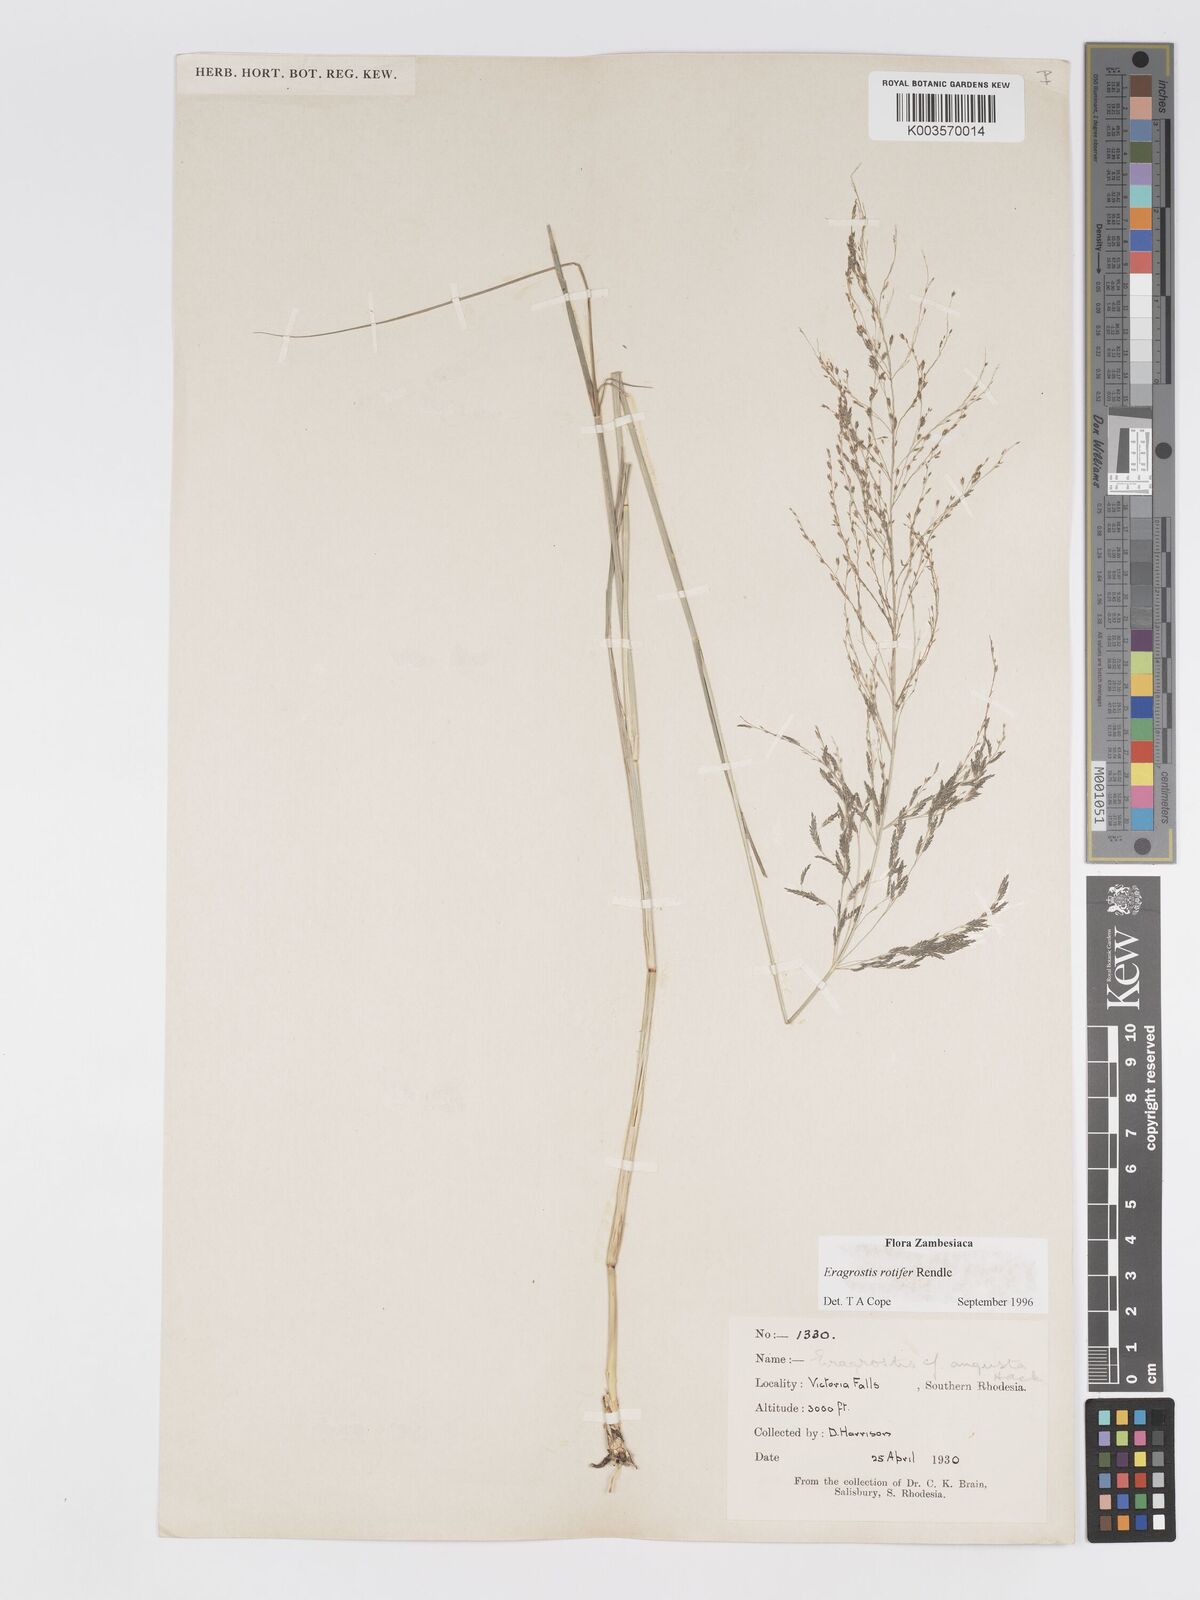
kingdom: Plantae
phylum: Tracheophyta
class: Liliopsida
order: Poales
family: Poaceae
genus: Eragrostis
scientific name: Eragrostis rotifer
